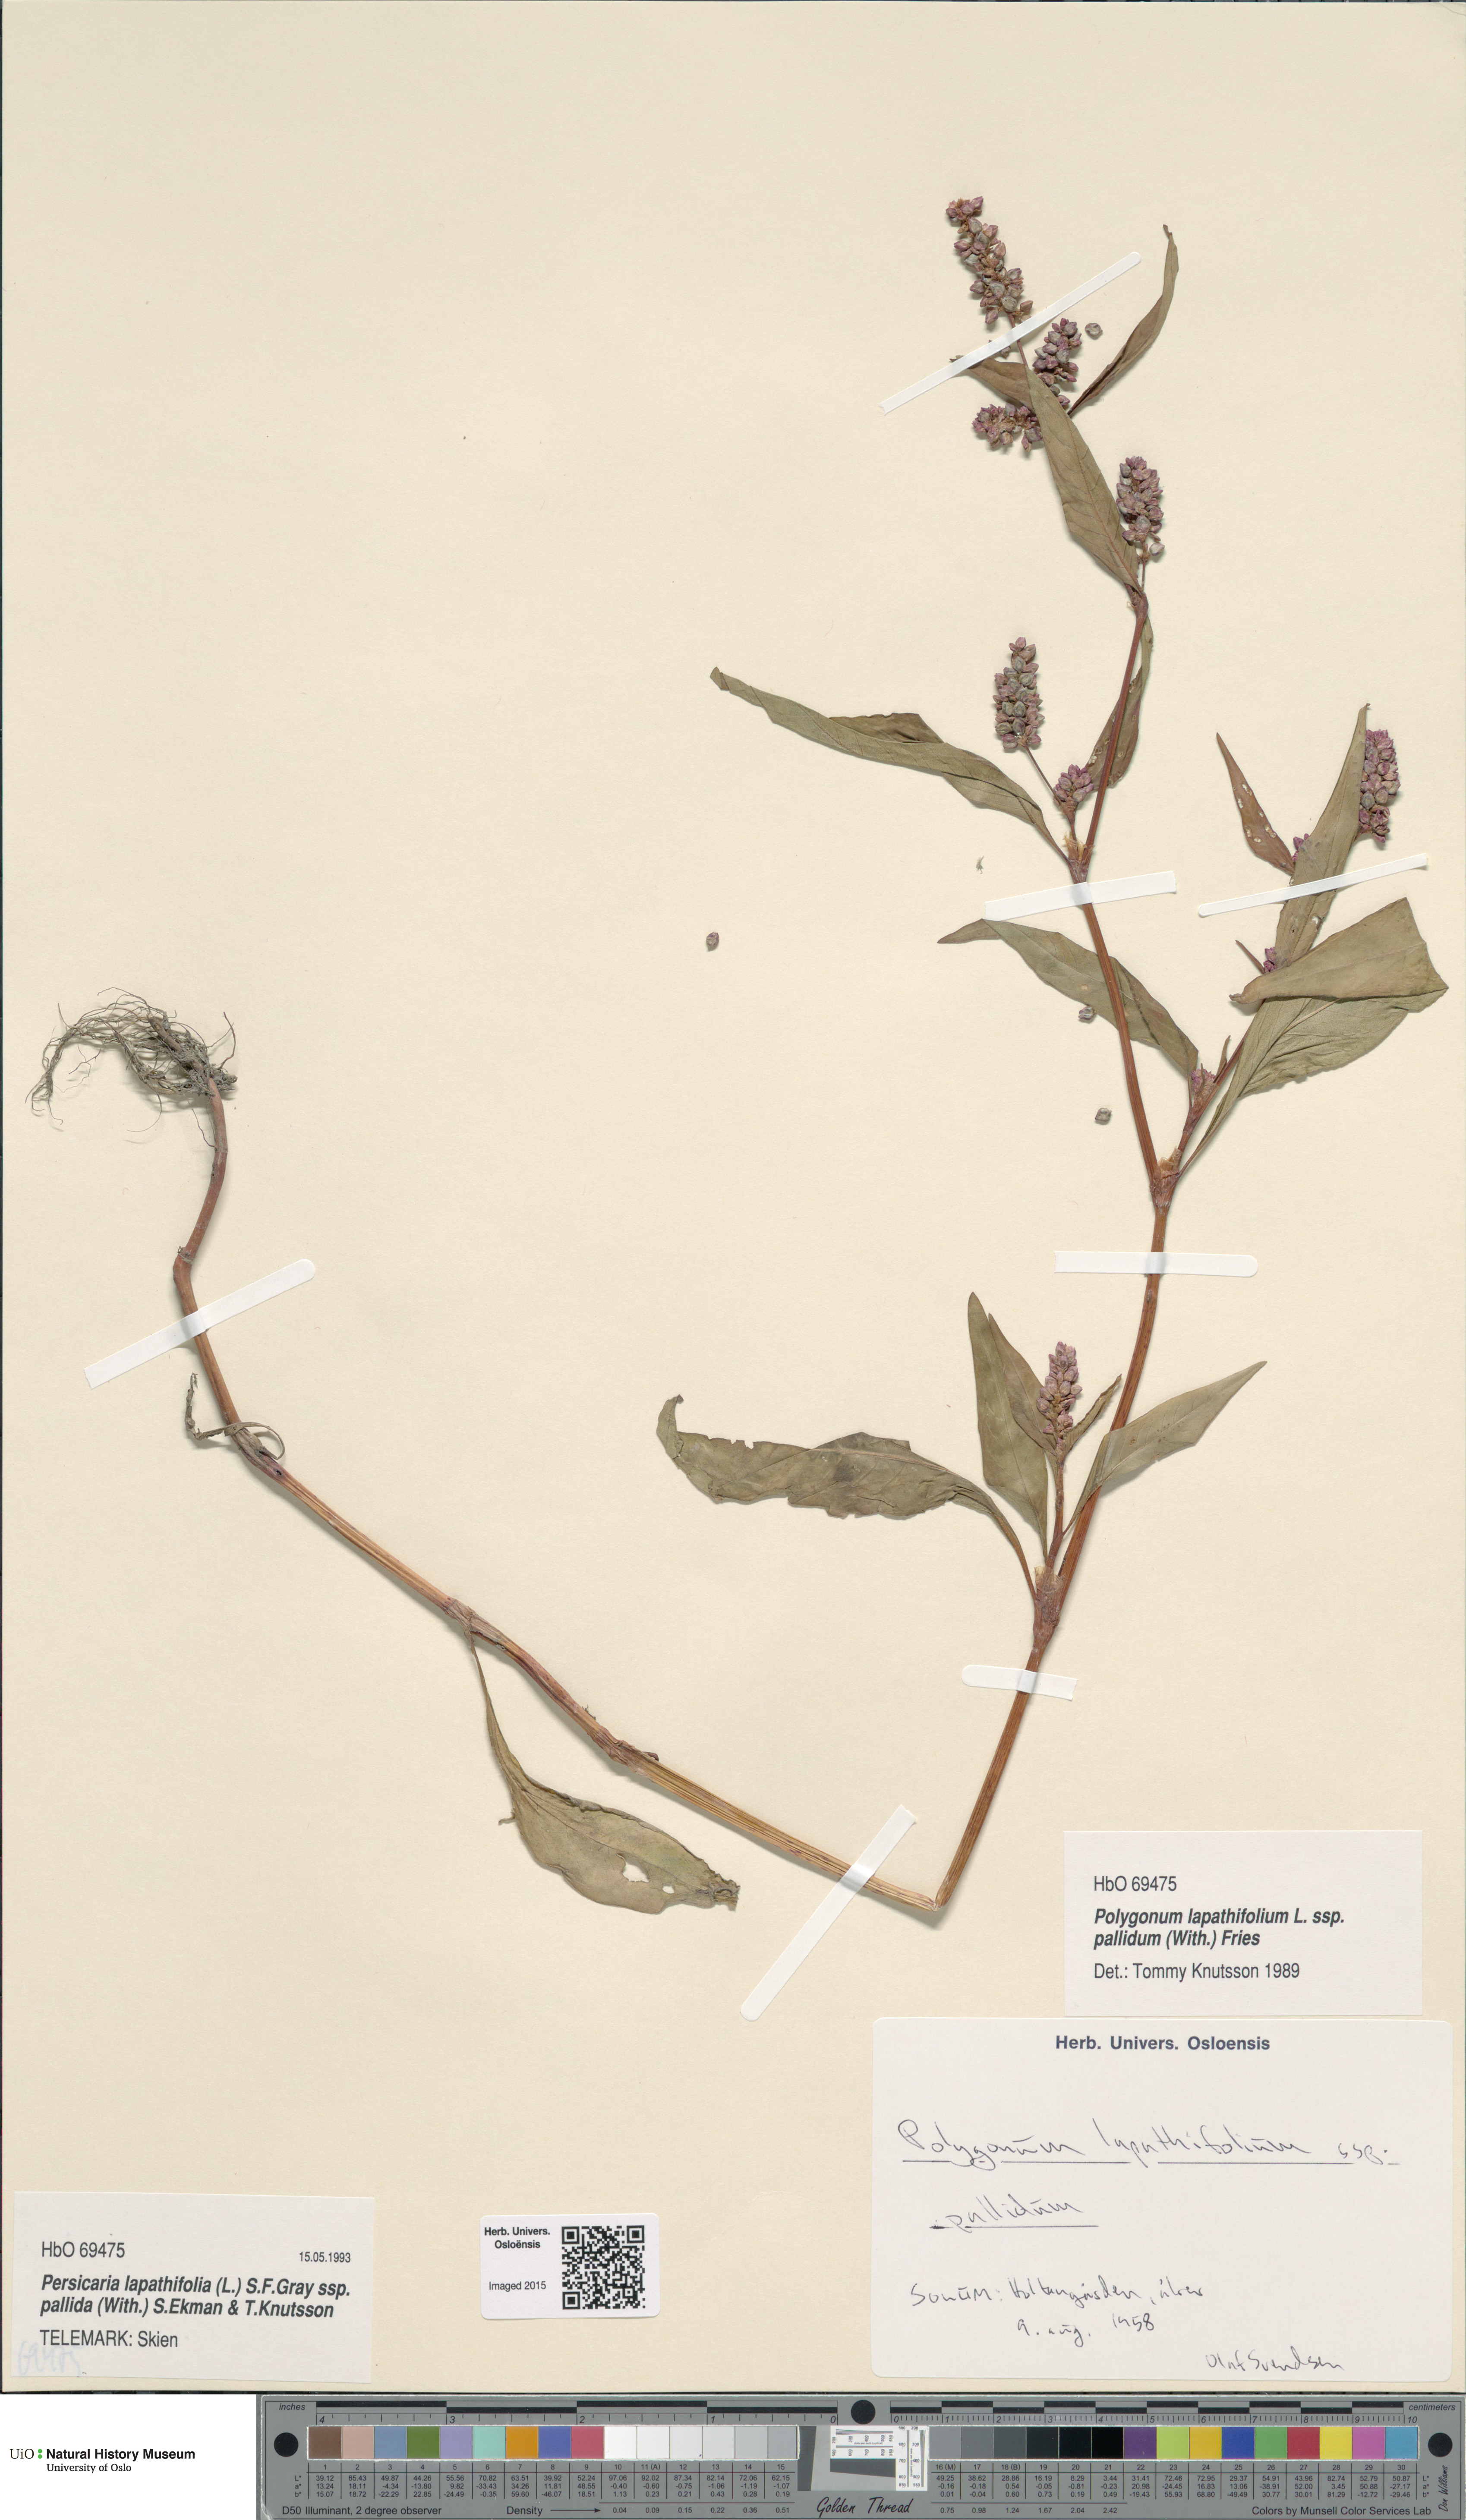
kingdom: Plantae
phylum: Tracheophyta
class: Magnoliopsida
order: Caryophyllales
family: Polygonaceae
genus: Persicaria
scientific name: Persicaria lapathifolia
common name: Curlytop knotweed
